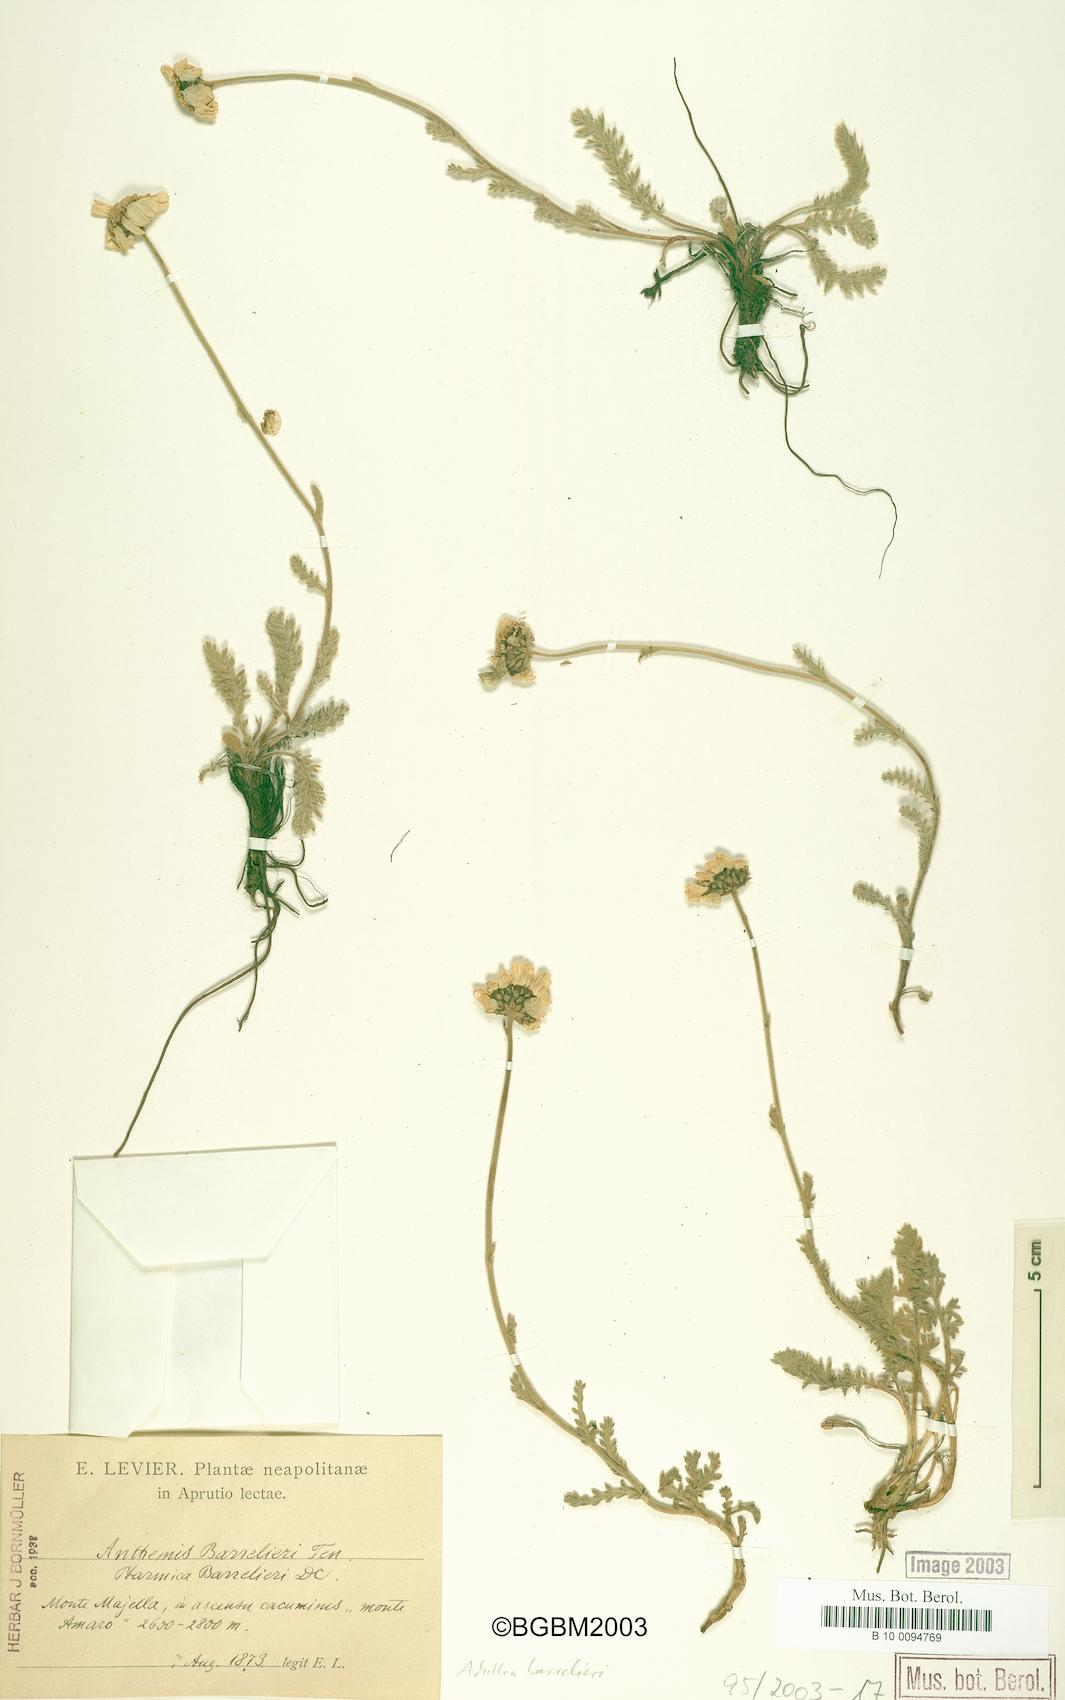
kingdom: Plantae
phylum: Tracheophyta
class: Magnoliopsida
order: Asterales
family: Asteraceae
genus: Achillea
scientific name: Achillea barrelieri
